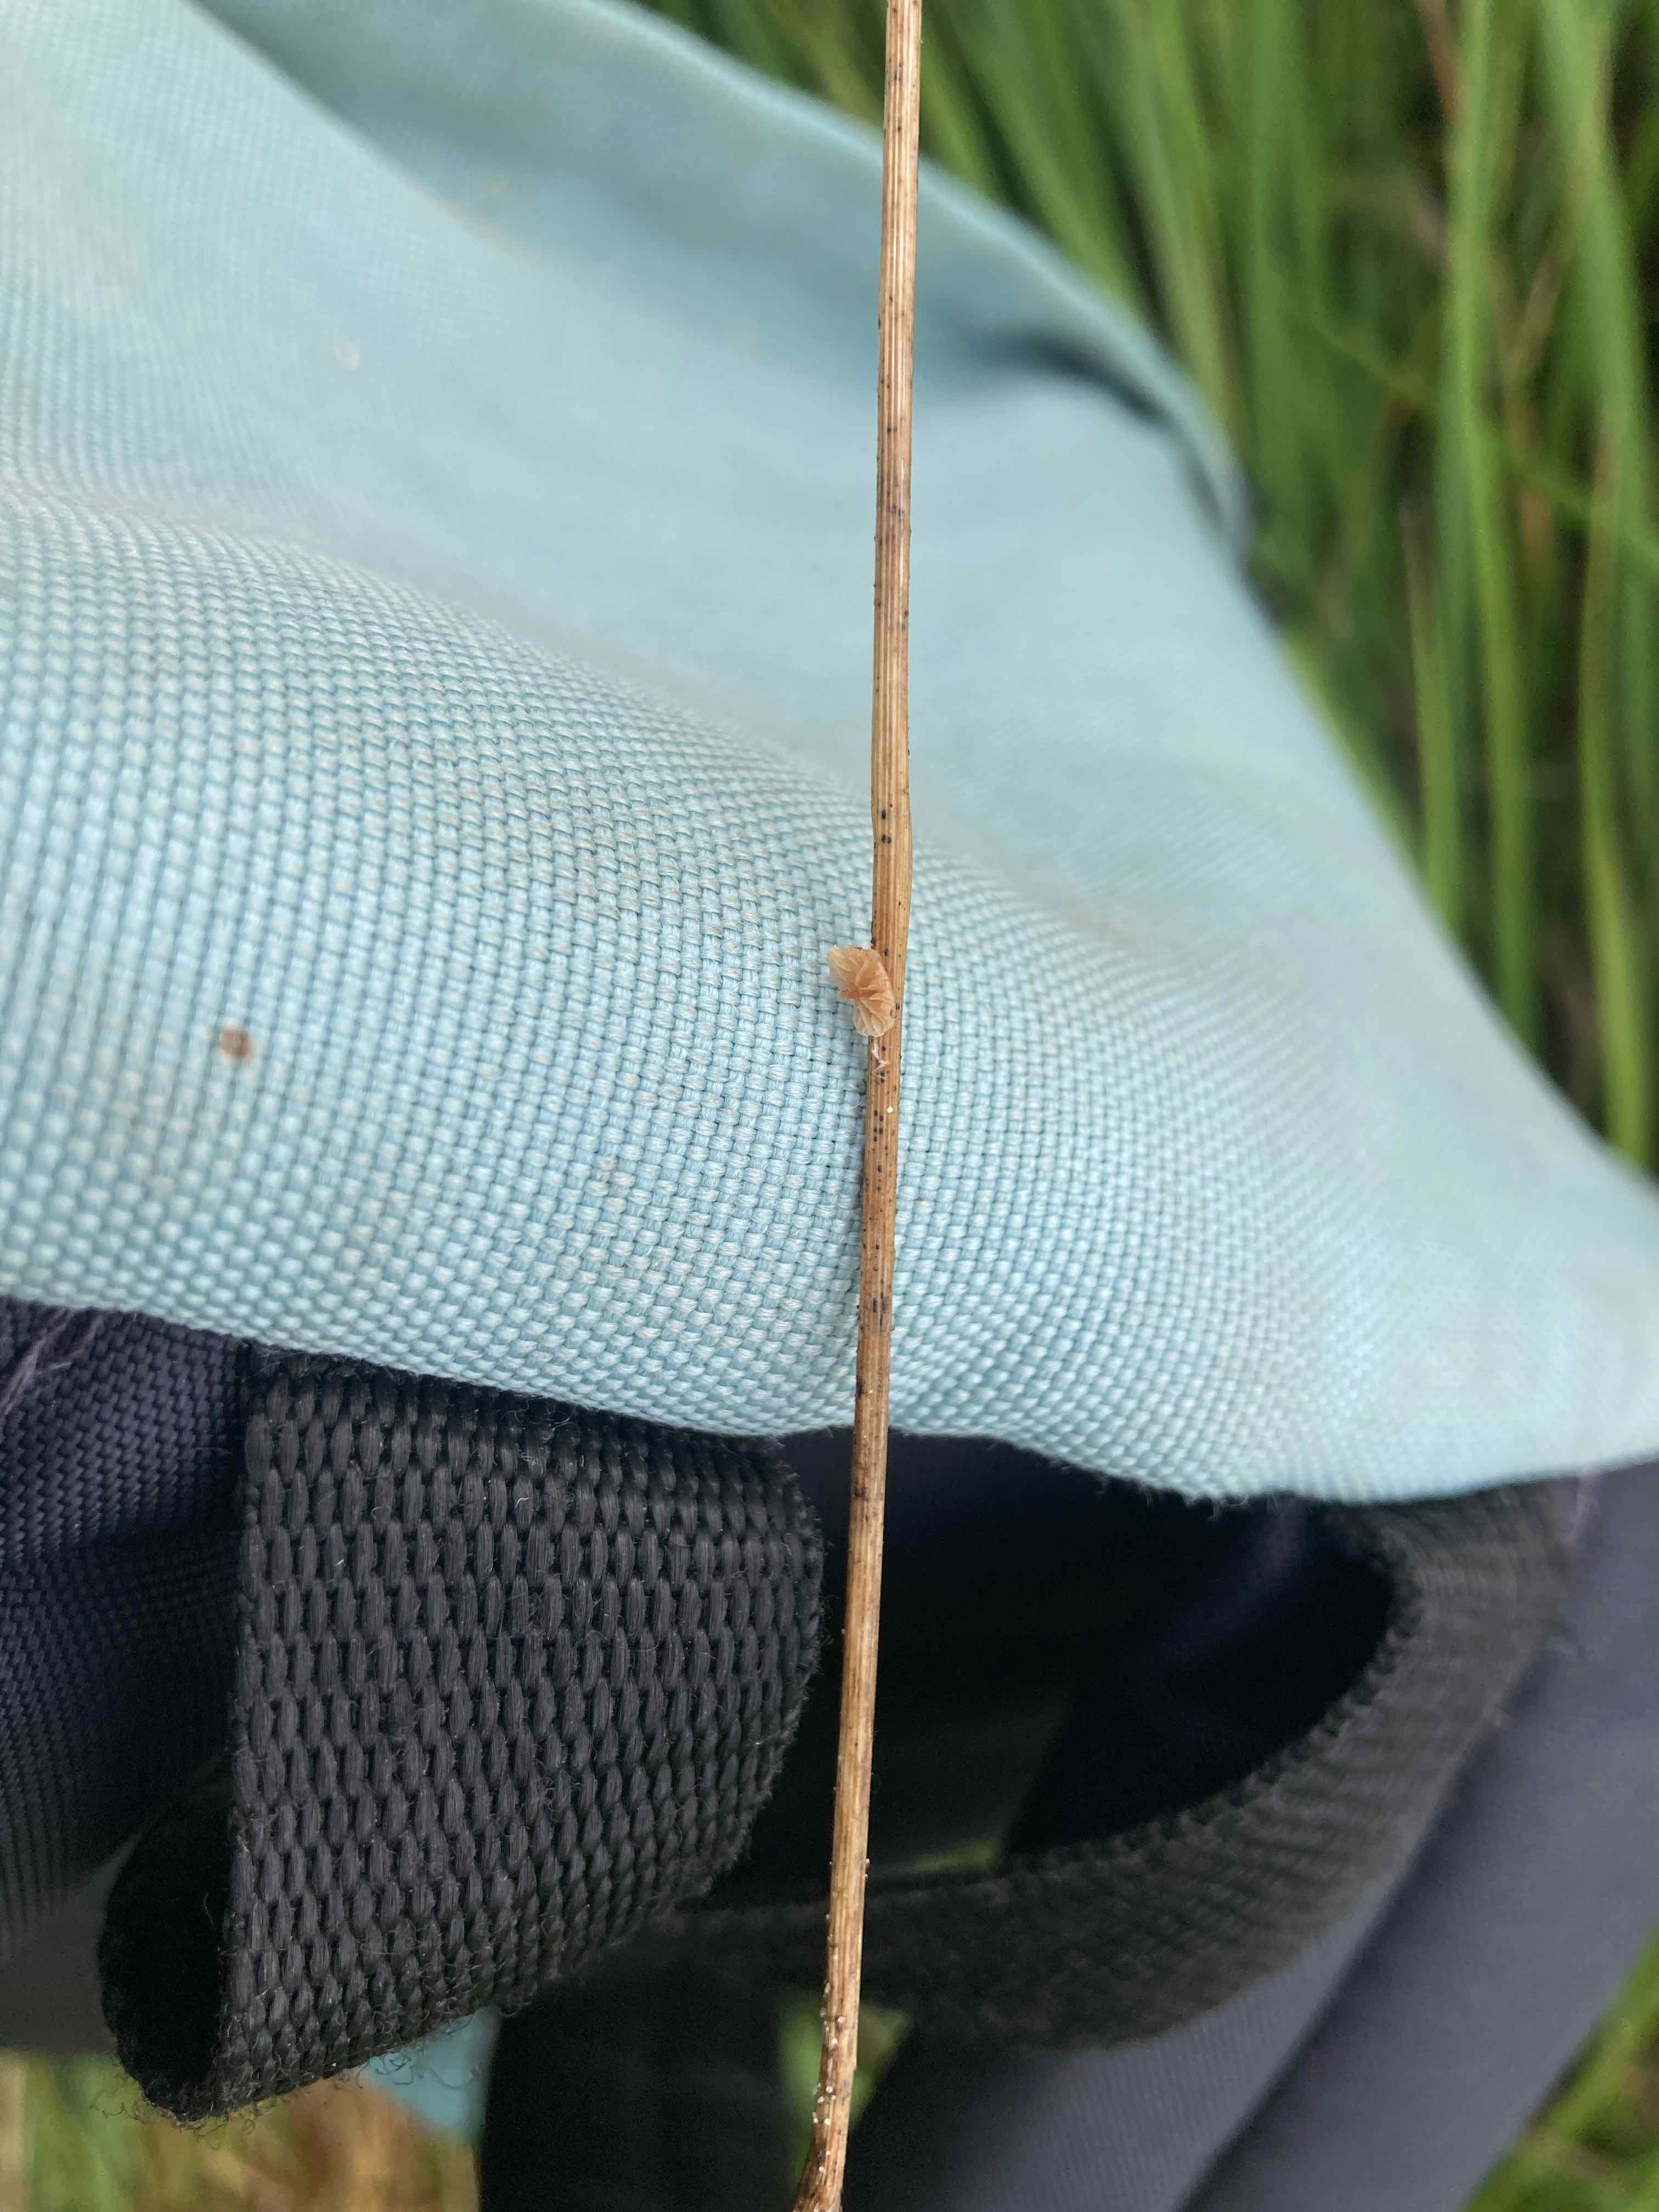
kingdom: Fungi
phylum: Basidiomycota
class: Agaricomycetes
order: Agaricales
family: Strophariaceae
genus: Deconica
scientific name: Deconica phillipsii
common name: almindelig stråhat
